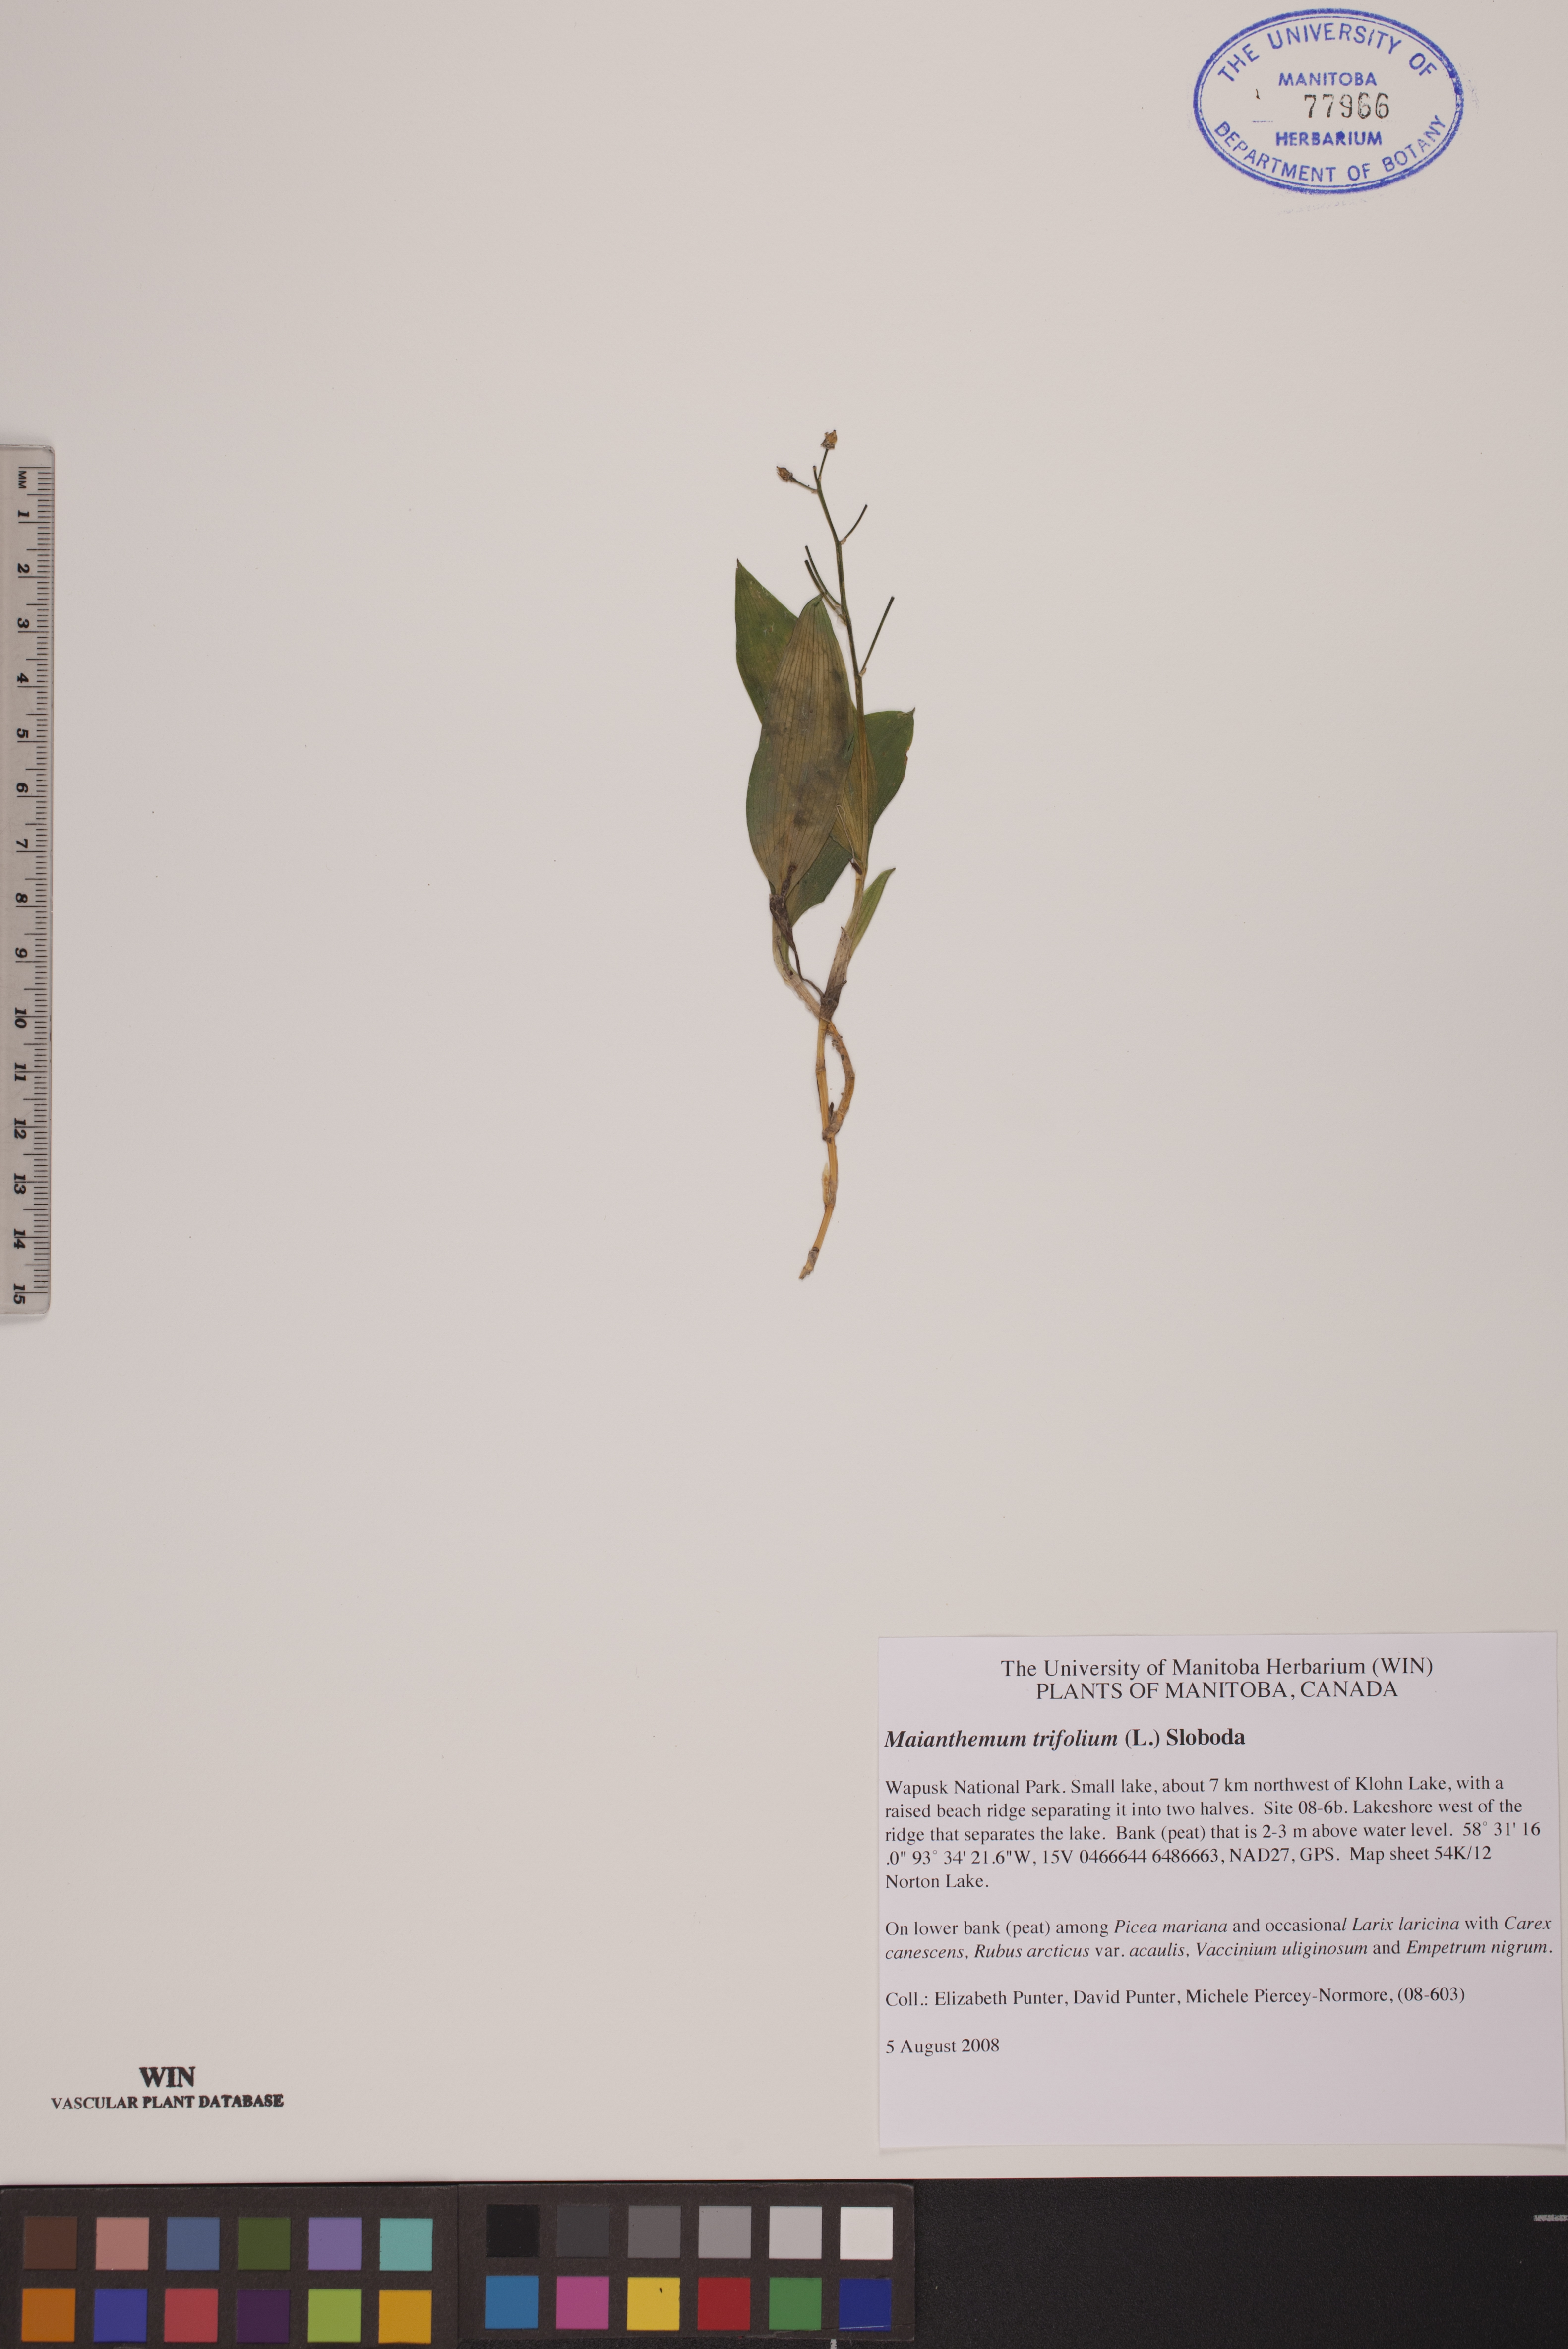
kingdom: Plantae
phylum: Tracheophyta
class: Liliopsida
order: Asparagales
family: Asparagaceae
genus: Maianthemum
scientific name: Maianthemum trifolium
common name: Swamp false solomon's seal
